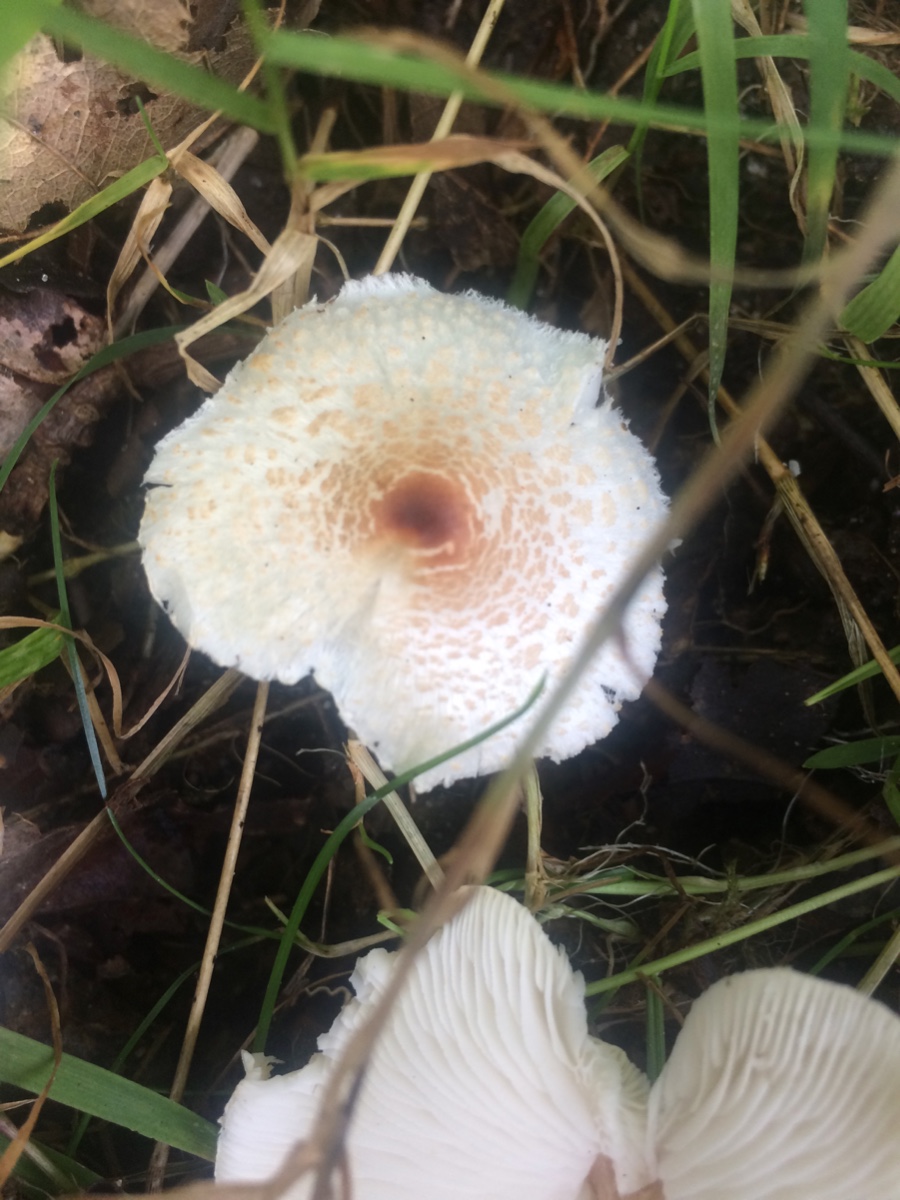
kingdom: Fungi
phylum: Basidiomycota
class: Agaricomycetes
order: Agaricales
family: Agaricaceae
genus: Lepiota
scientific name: Lepiota cristata
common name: stinkende parasolhat
